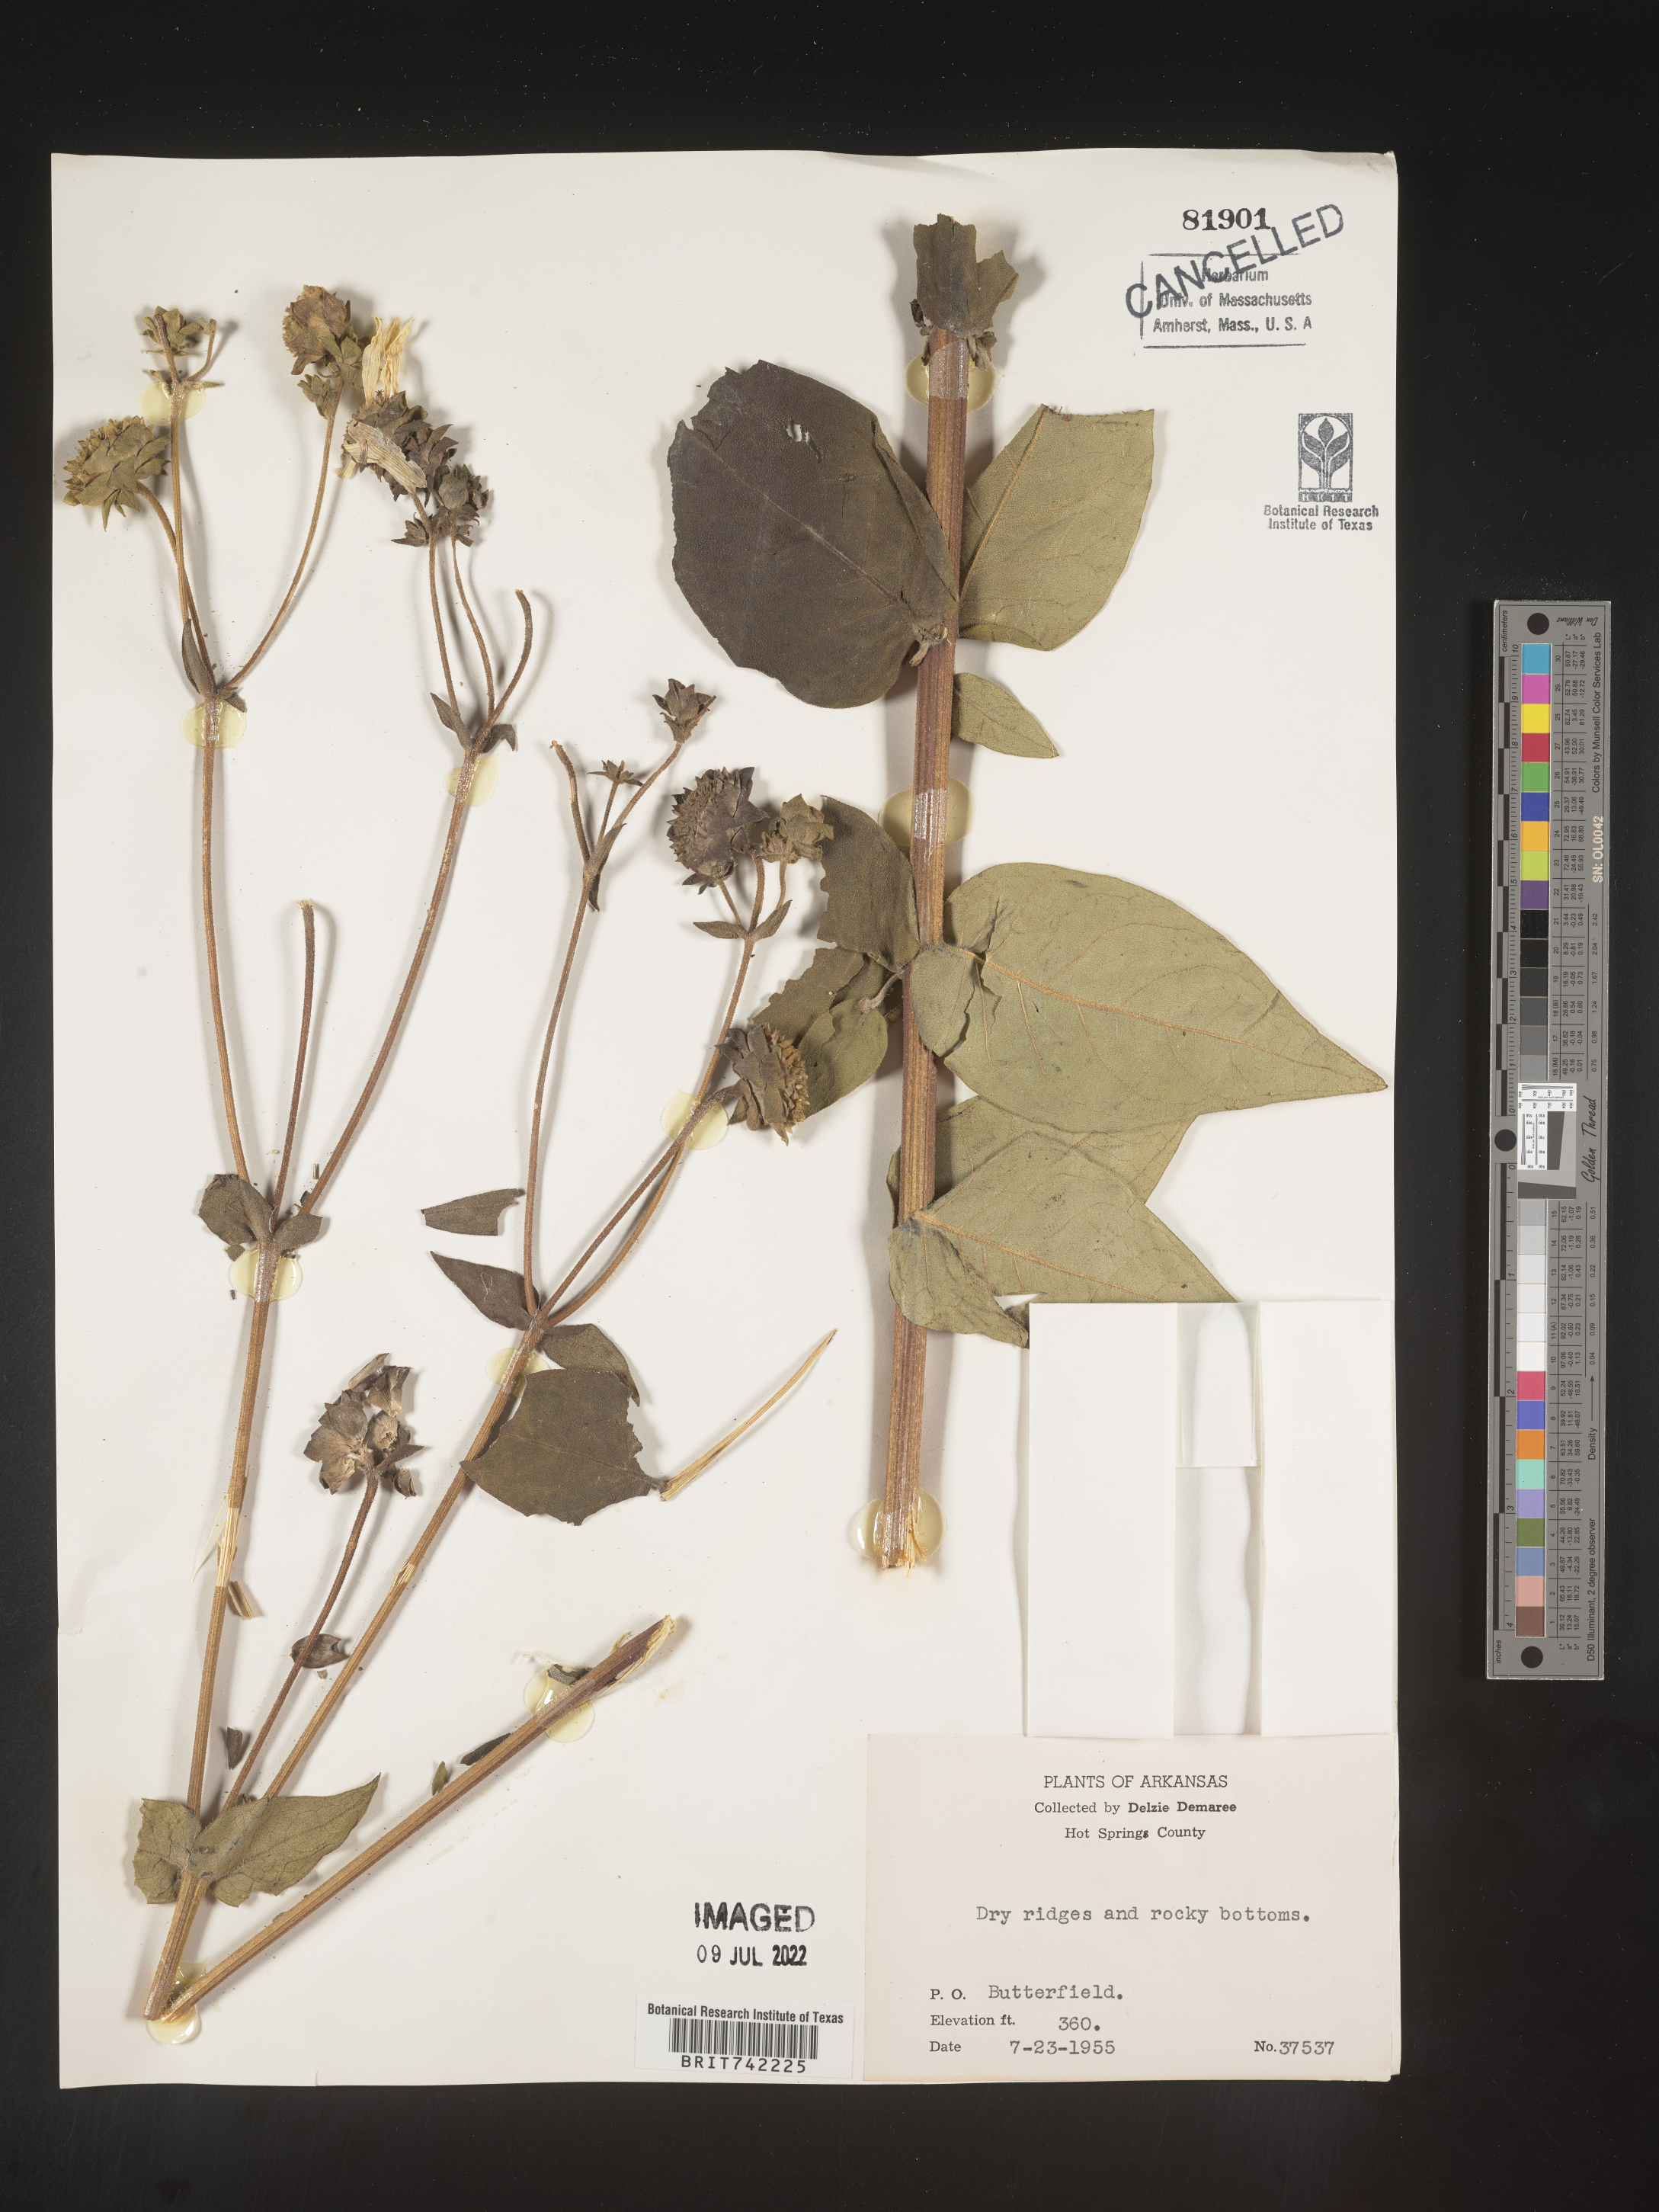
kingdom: Plantae
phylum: Tracheophyta
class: Magnoliopsida
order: Asterales
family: Asteraceae
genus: Silphium
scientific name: Silphium integrifolium
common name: Whole-leaf rosinweed
